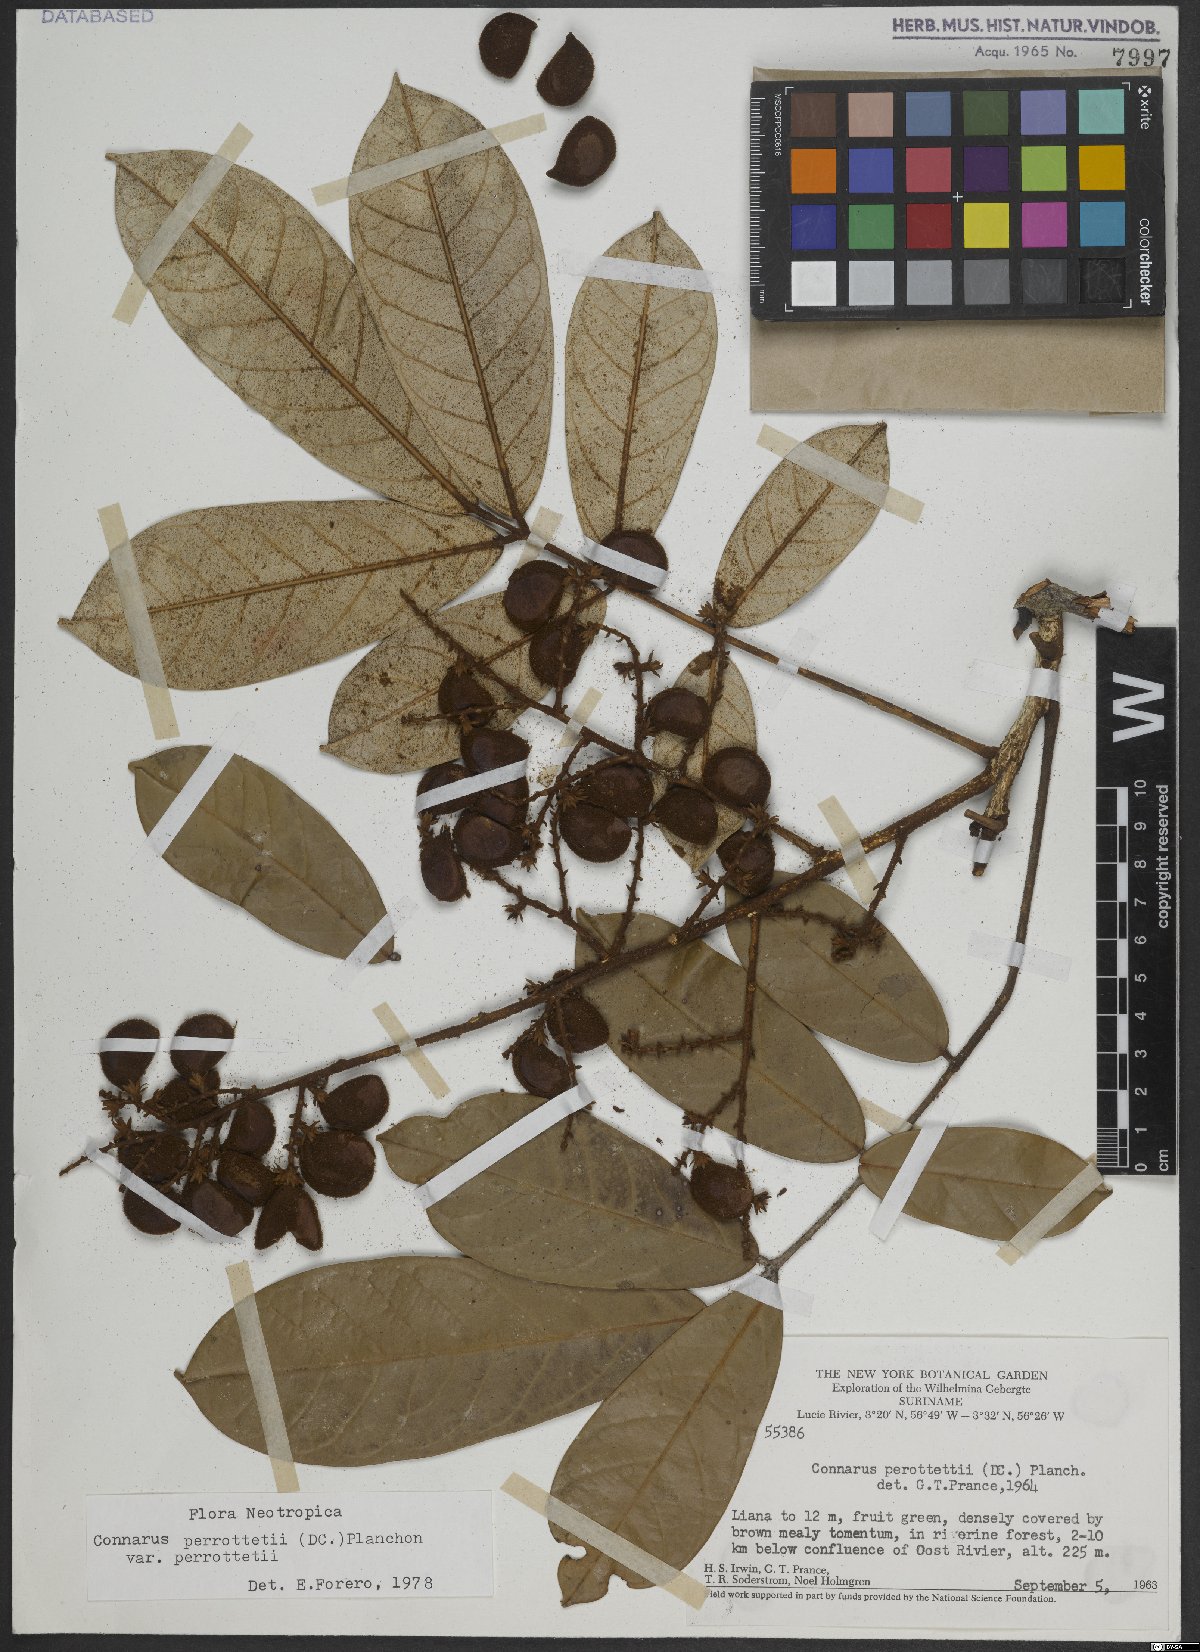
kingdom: Plantae
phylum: Tracheophyta
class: Magnoliopsida
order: Oxalidales
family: Connaraceae
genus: Connarus
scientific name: Connarus perrottetii
